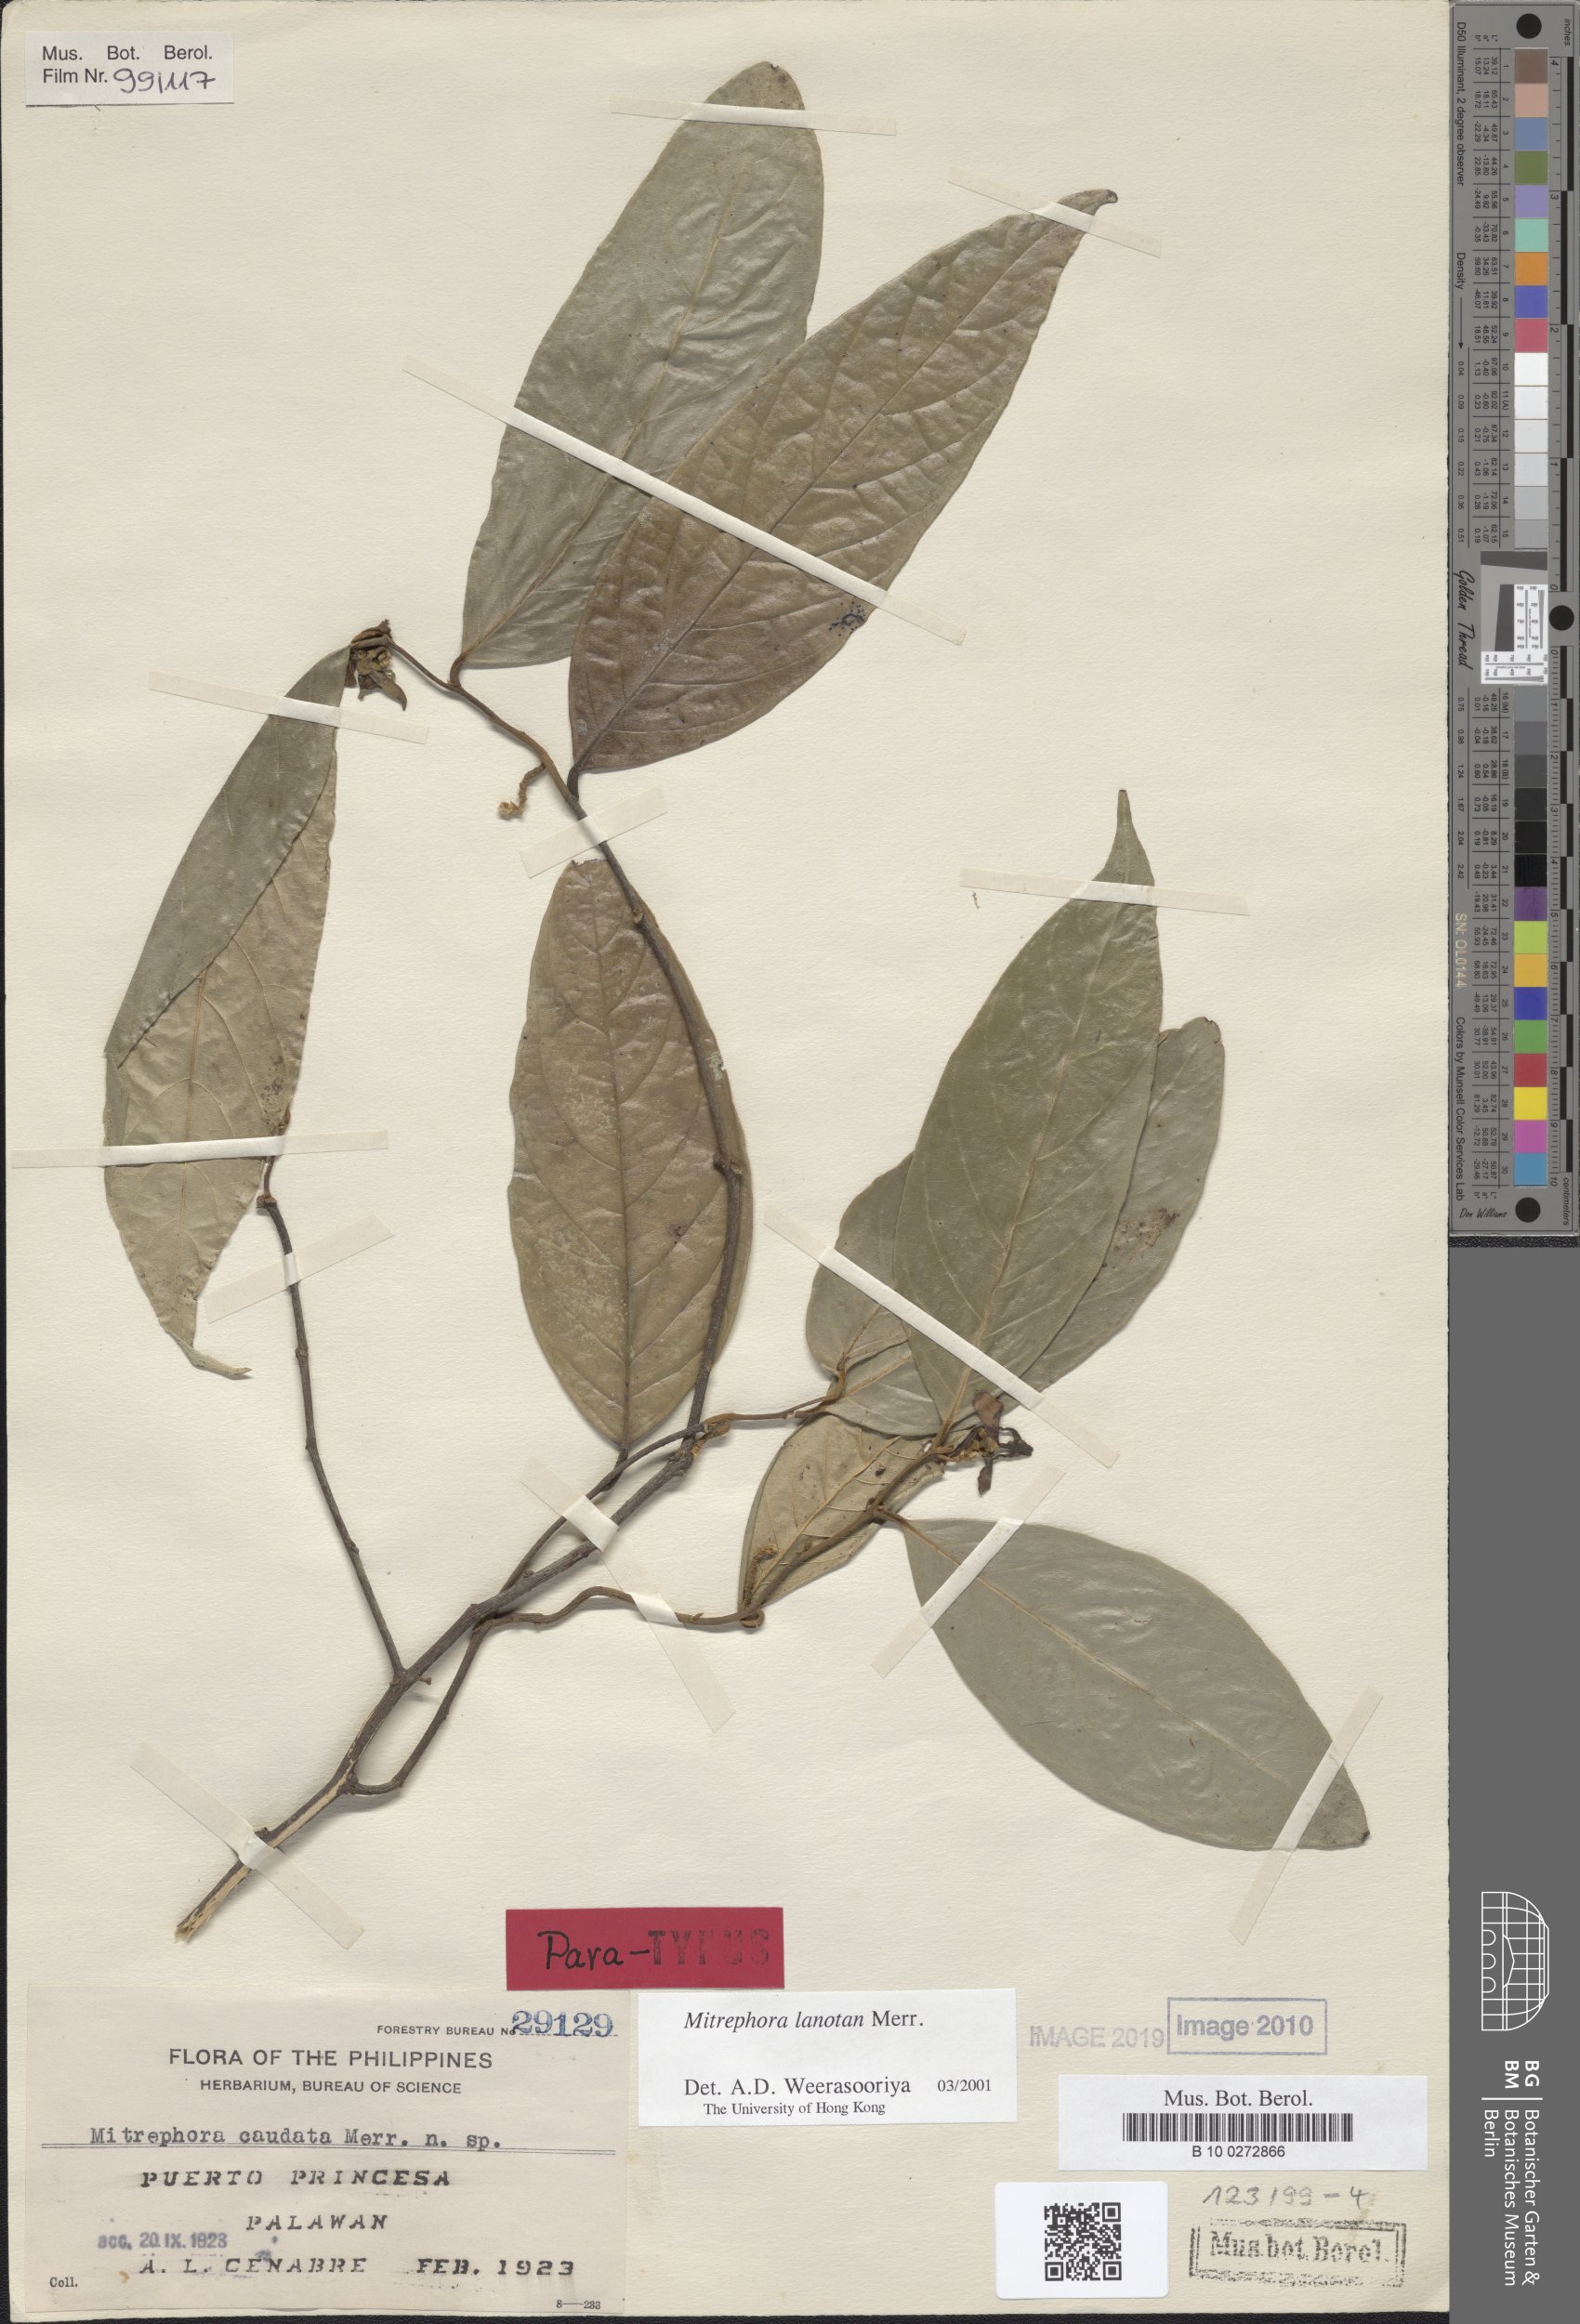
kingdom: Plantae
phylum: Tracheophyta
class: Magnoliopsida
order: Magnoliales
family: Annonaceae
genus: Mitrephora
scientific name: Mitrephora lanotan
